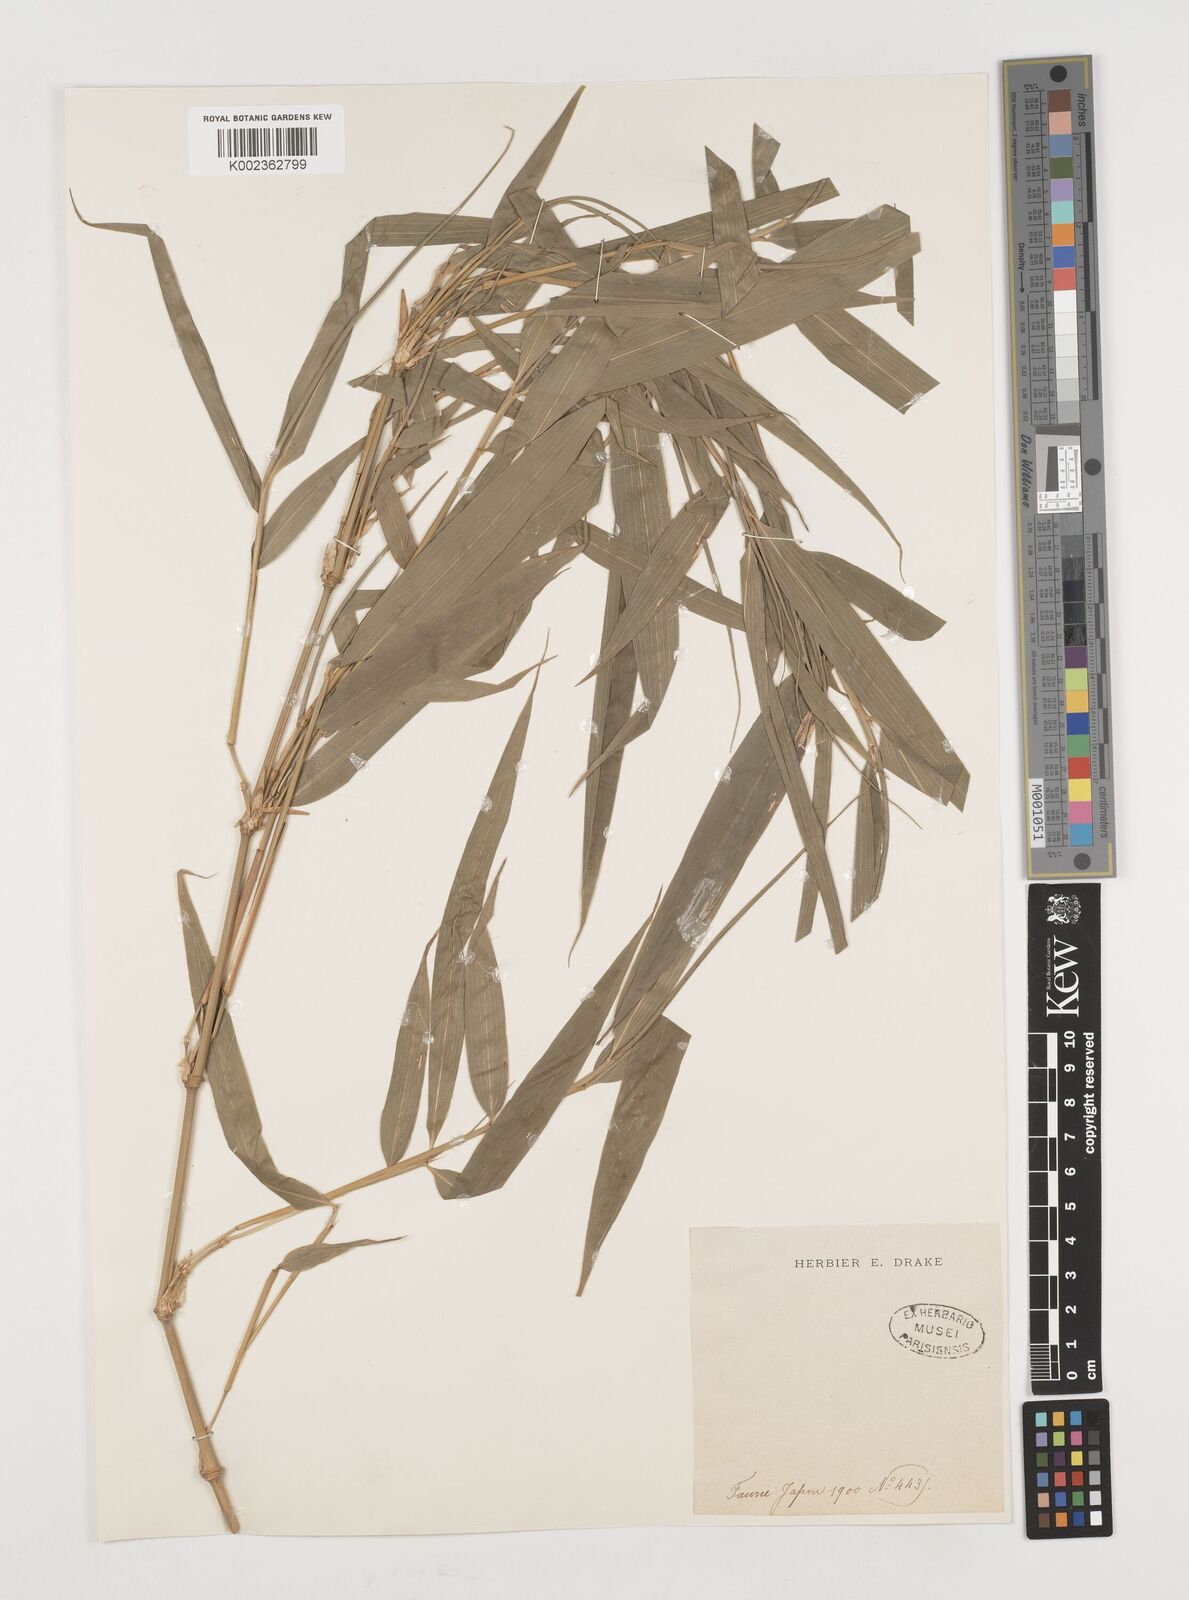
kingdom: Plantae
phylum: Tracheophyta
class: Liliopsida
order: Poales
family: Poaceae
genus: Chimonobambusa
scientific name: Chimonobambusa quadrangularis
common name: Square-stemmed bamboo
